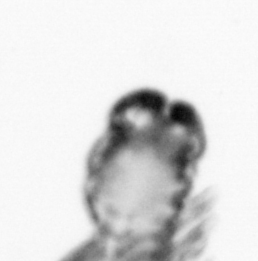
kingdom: Animalia
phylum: Arthropoda
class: Copepoda
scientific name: Copepoda
